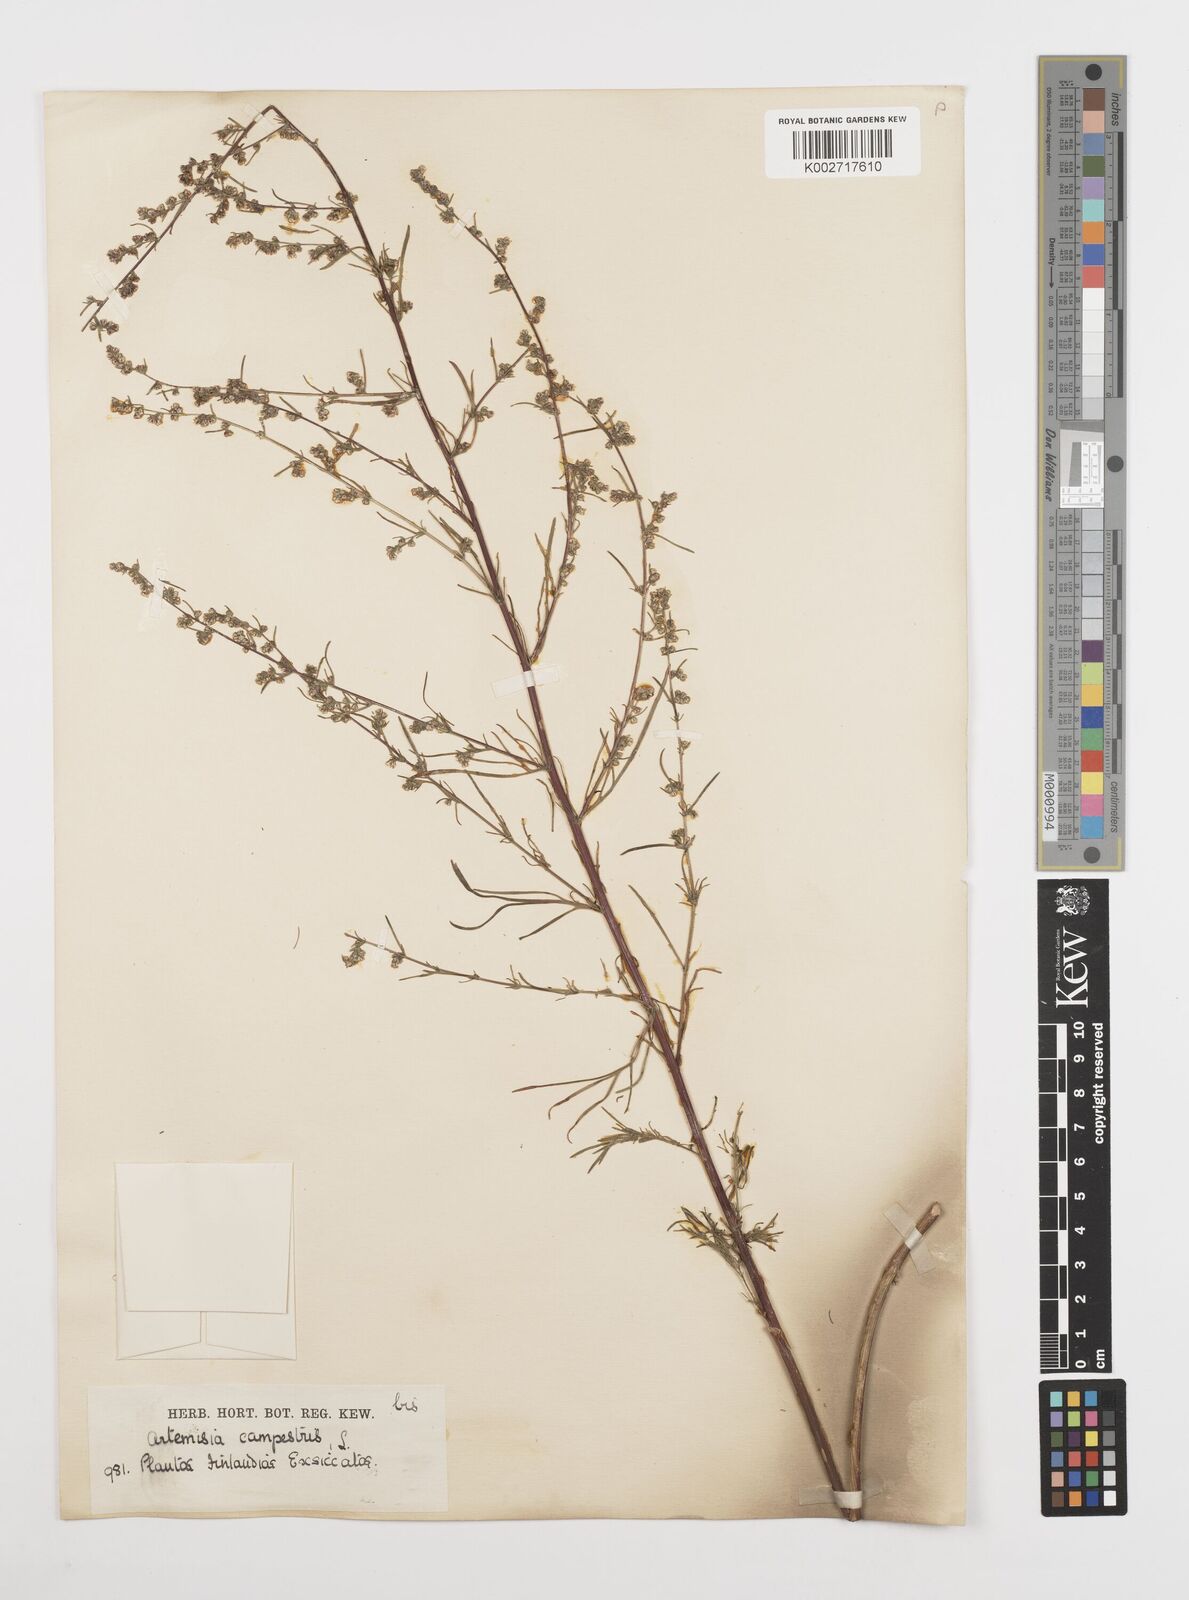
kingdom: Plantae
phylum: Tracheophyta
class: Magnoliopsida
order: Asterales
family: Asteraceae
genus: Artemisia
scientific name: Artemisia campestris
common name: Field wormwood
